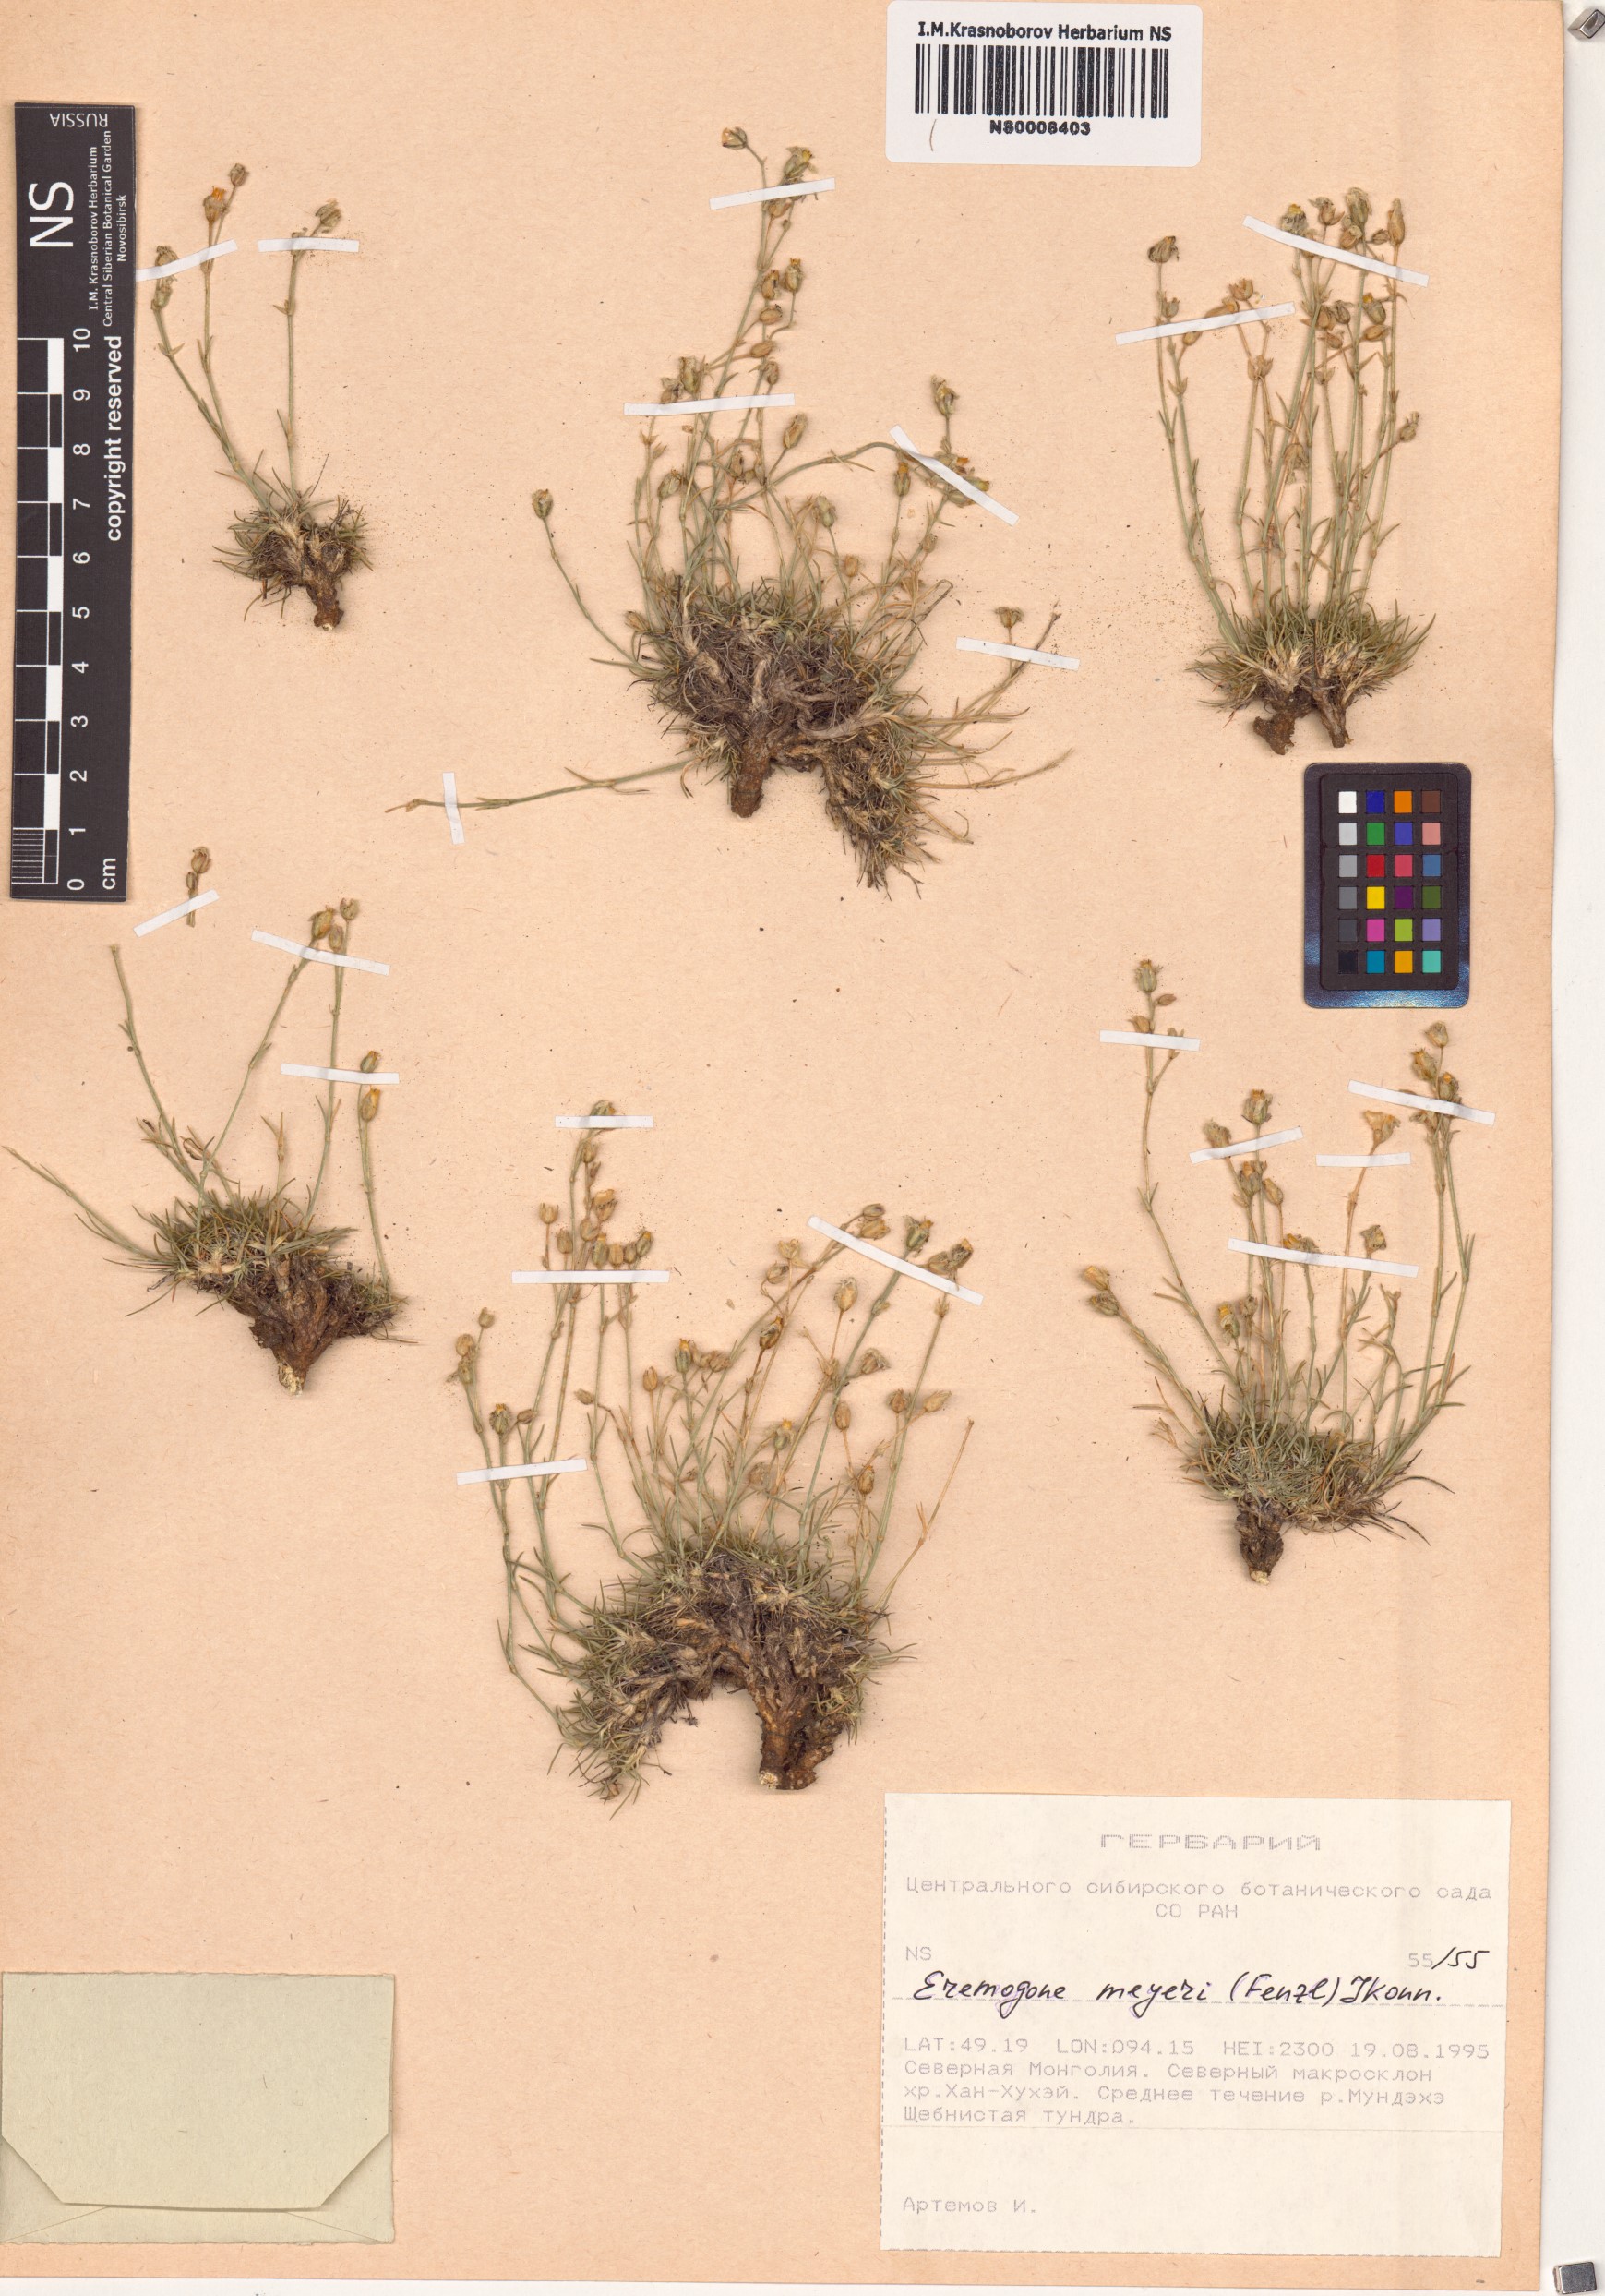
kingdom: Plantae
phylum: Tracheophyta
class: Magnoliopsida
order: Caryophyllales
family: Caryophyllaceae
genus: Eremogone
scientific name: Eremogone meyeri
